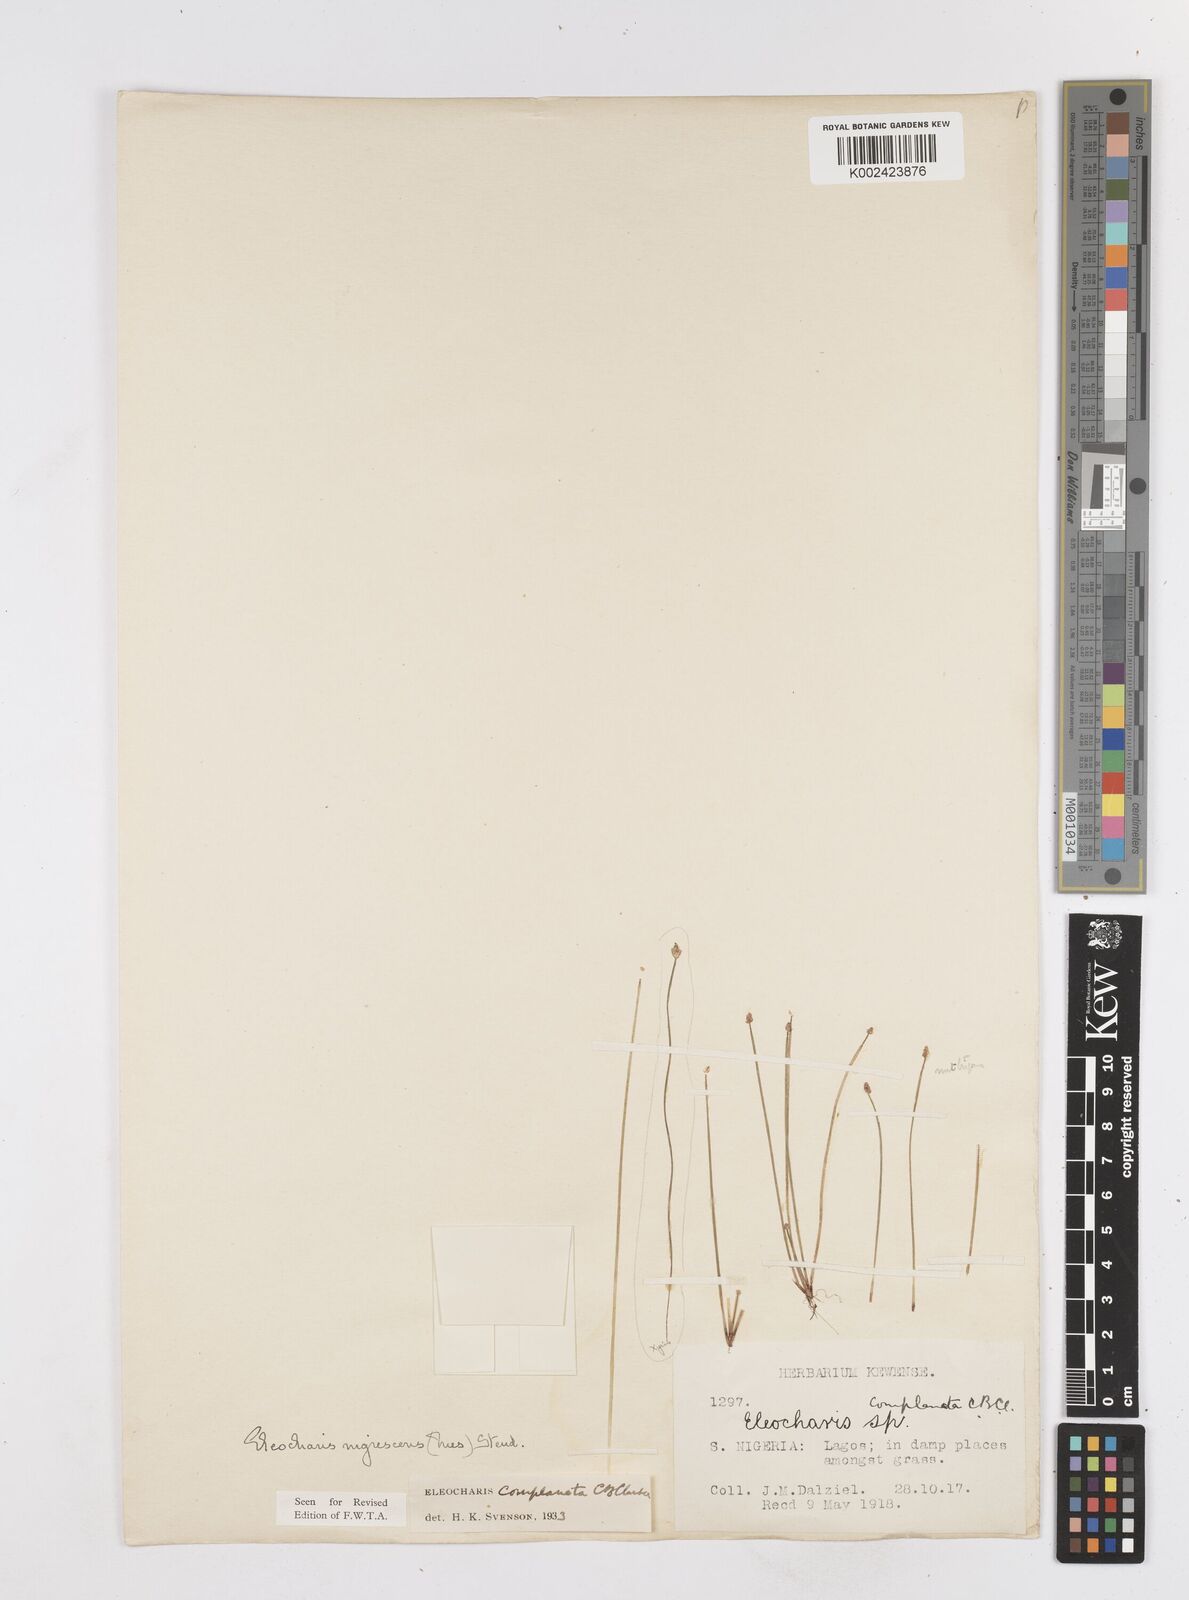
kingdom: Plantae
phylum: Tracheophyta
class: Liliopsida
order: Poales
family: Cyperaceae
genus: Eleocharis
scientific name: Eleocharis complanata
